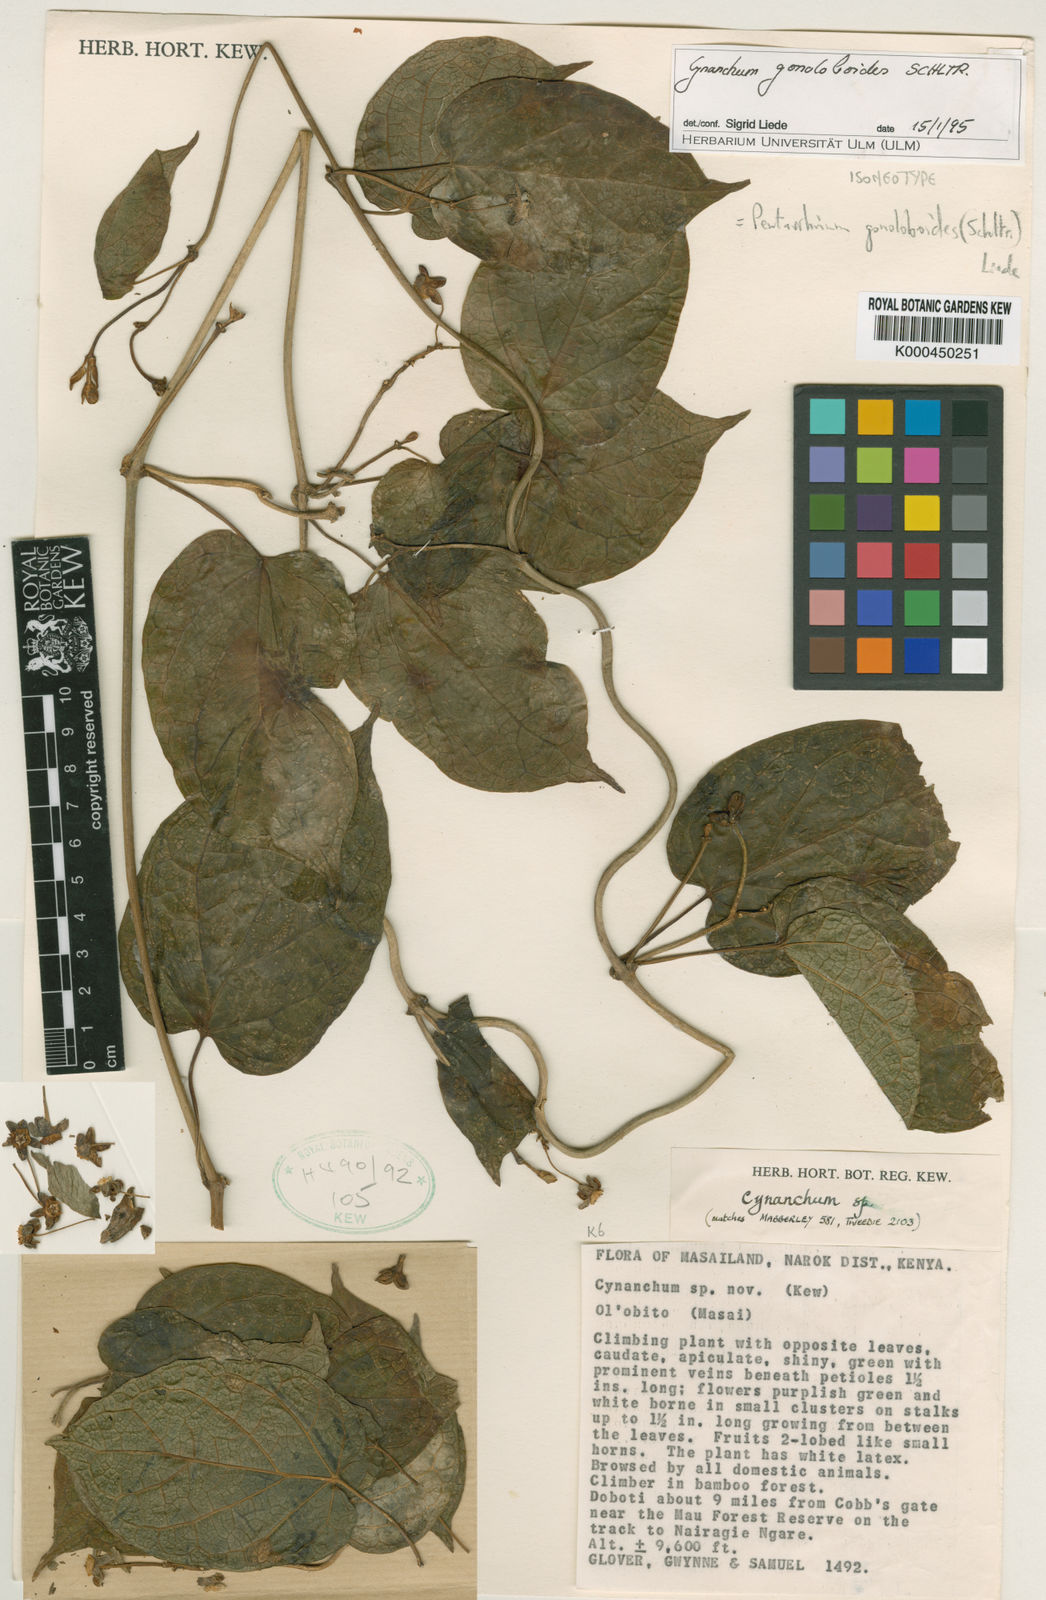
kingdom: Plantae
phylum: Tracheophyta
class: Magnoliopsida
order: Gentianales
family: Apocynaceae
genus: Cynanchum
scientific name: Cynanchum gonoloboides
